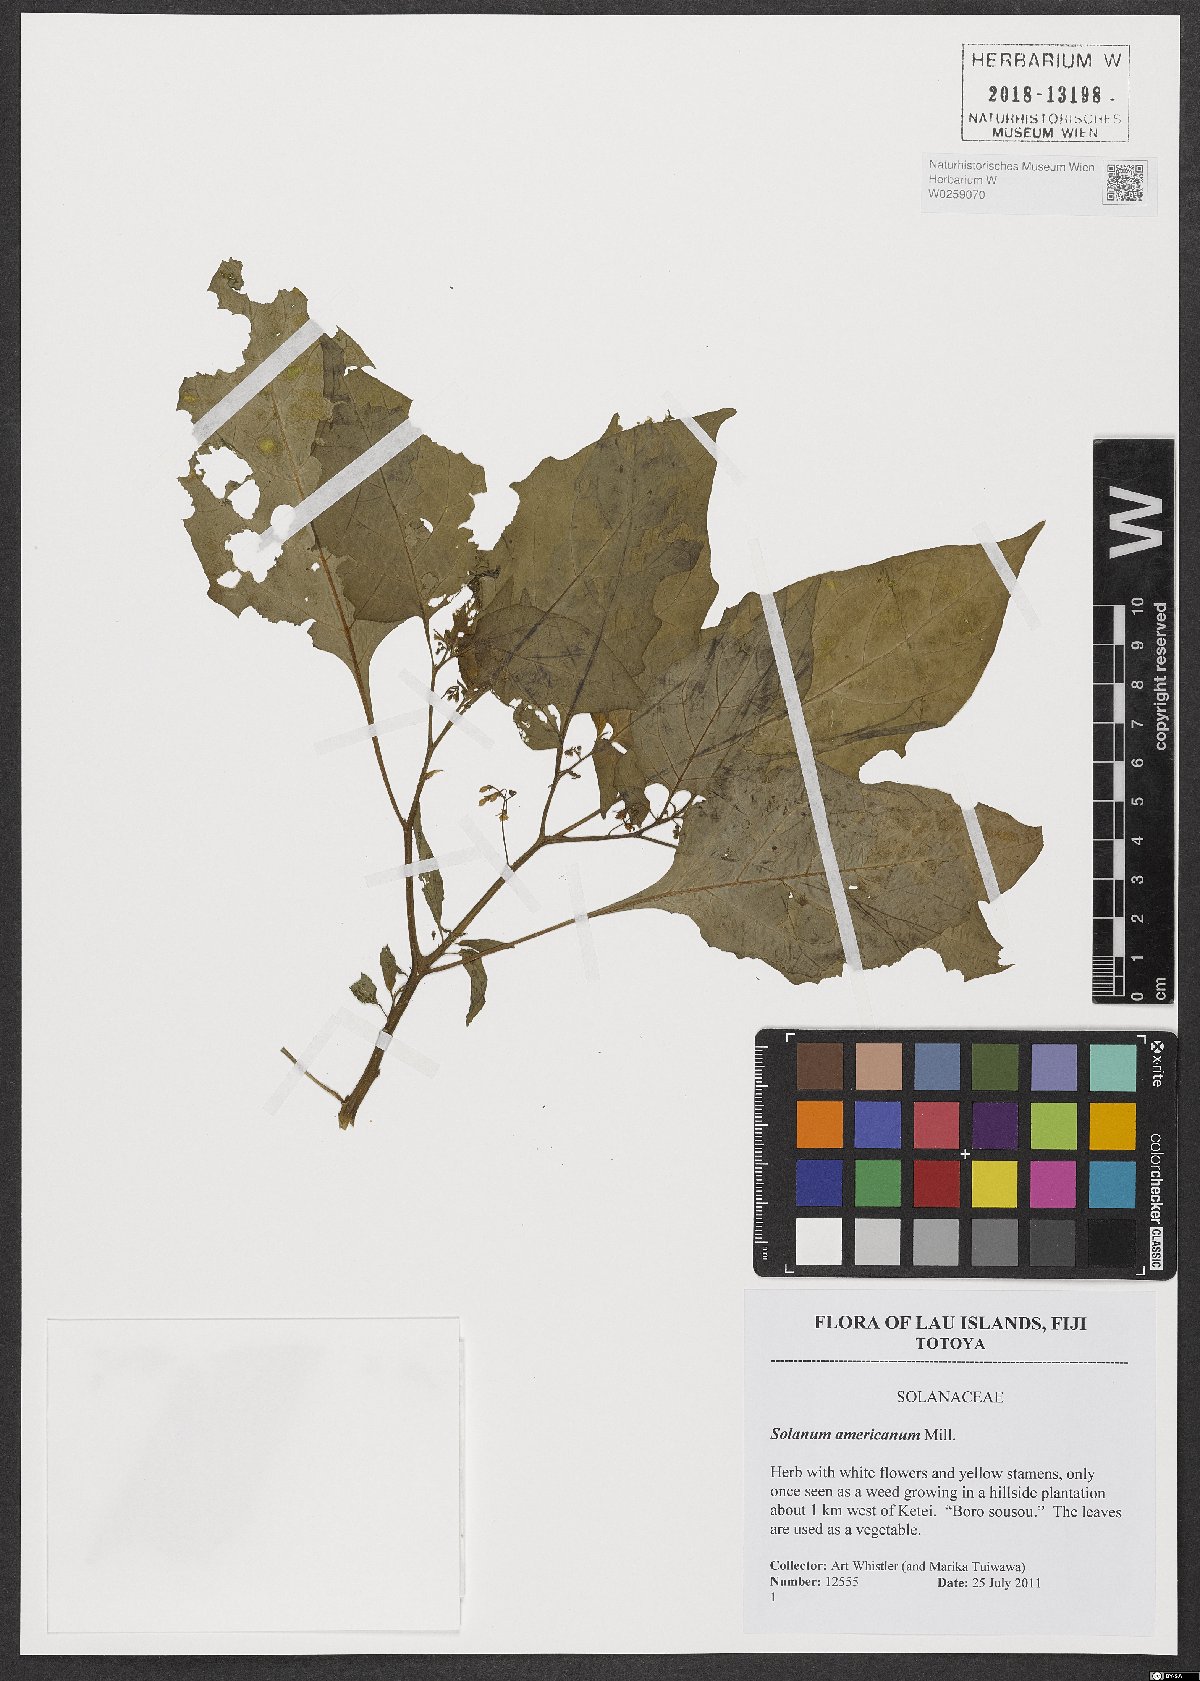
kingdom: Plantae
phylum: Tracheophyta
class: Magnoliopsida
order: Solanales
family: Solanaceae
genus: Solanum
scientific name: Solanum americanum
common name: American black nightshade
